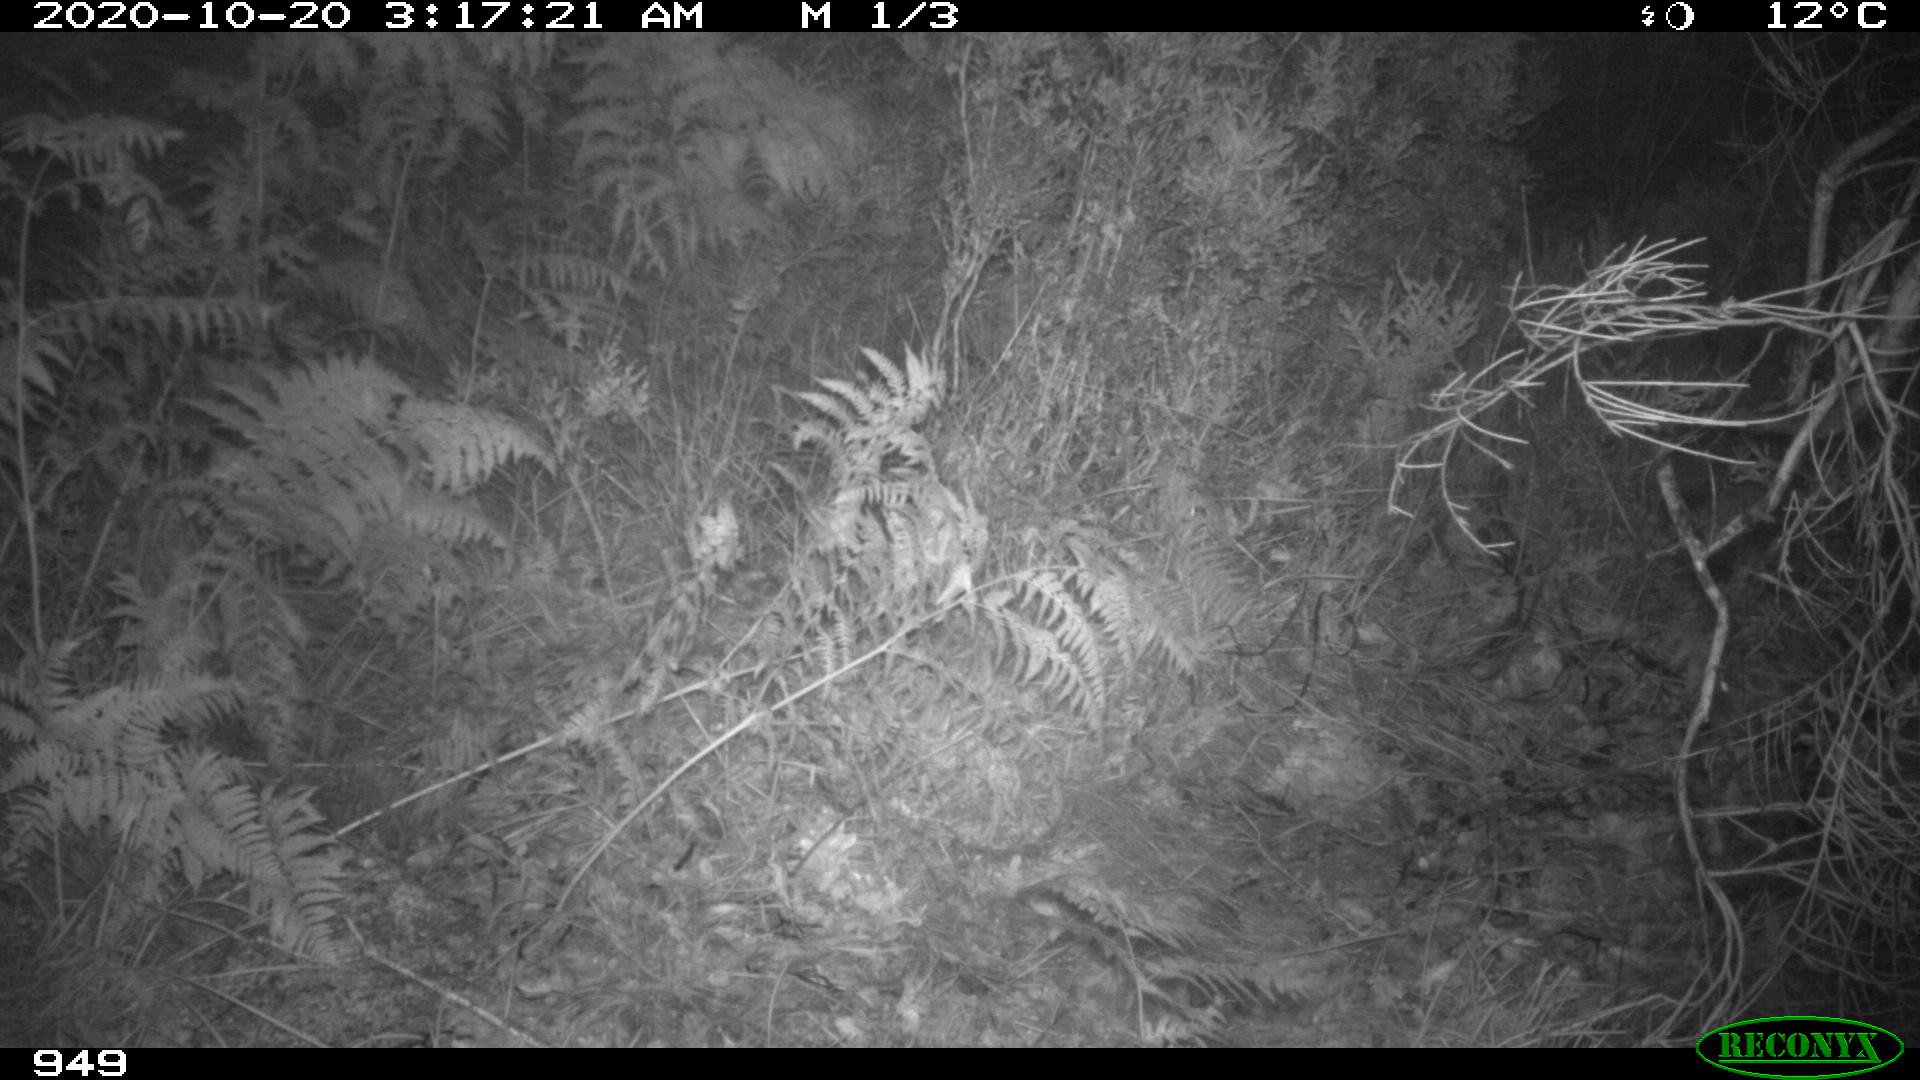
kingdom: Animalia
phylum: Chordata
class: Mammalia
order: Perissodactyla
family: Equidae
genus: Equus
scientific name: Equus caballus
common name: Horse
